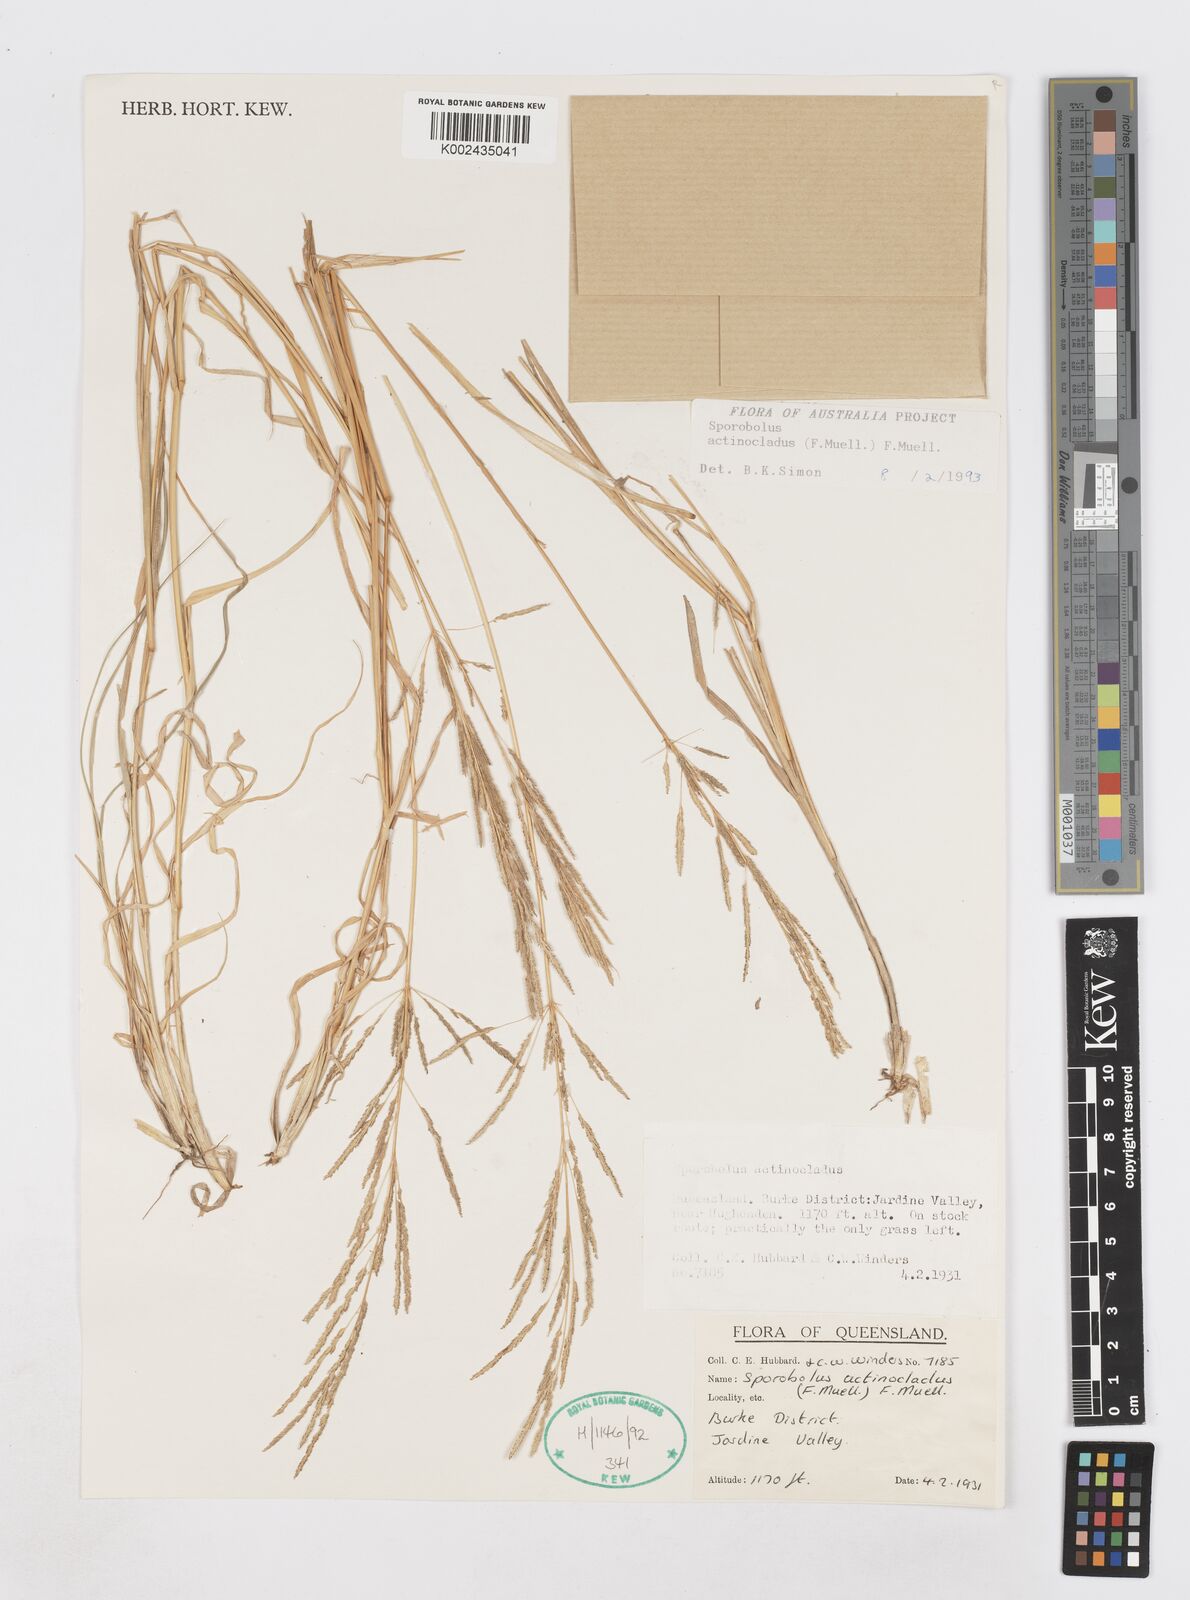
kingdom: Plantae
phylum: Tracheophyta
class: Liliopsida
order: Poales
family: Poaceae
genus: Sporobolus
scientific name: Sporobolus actinocladus
